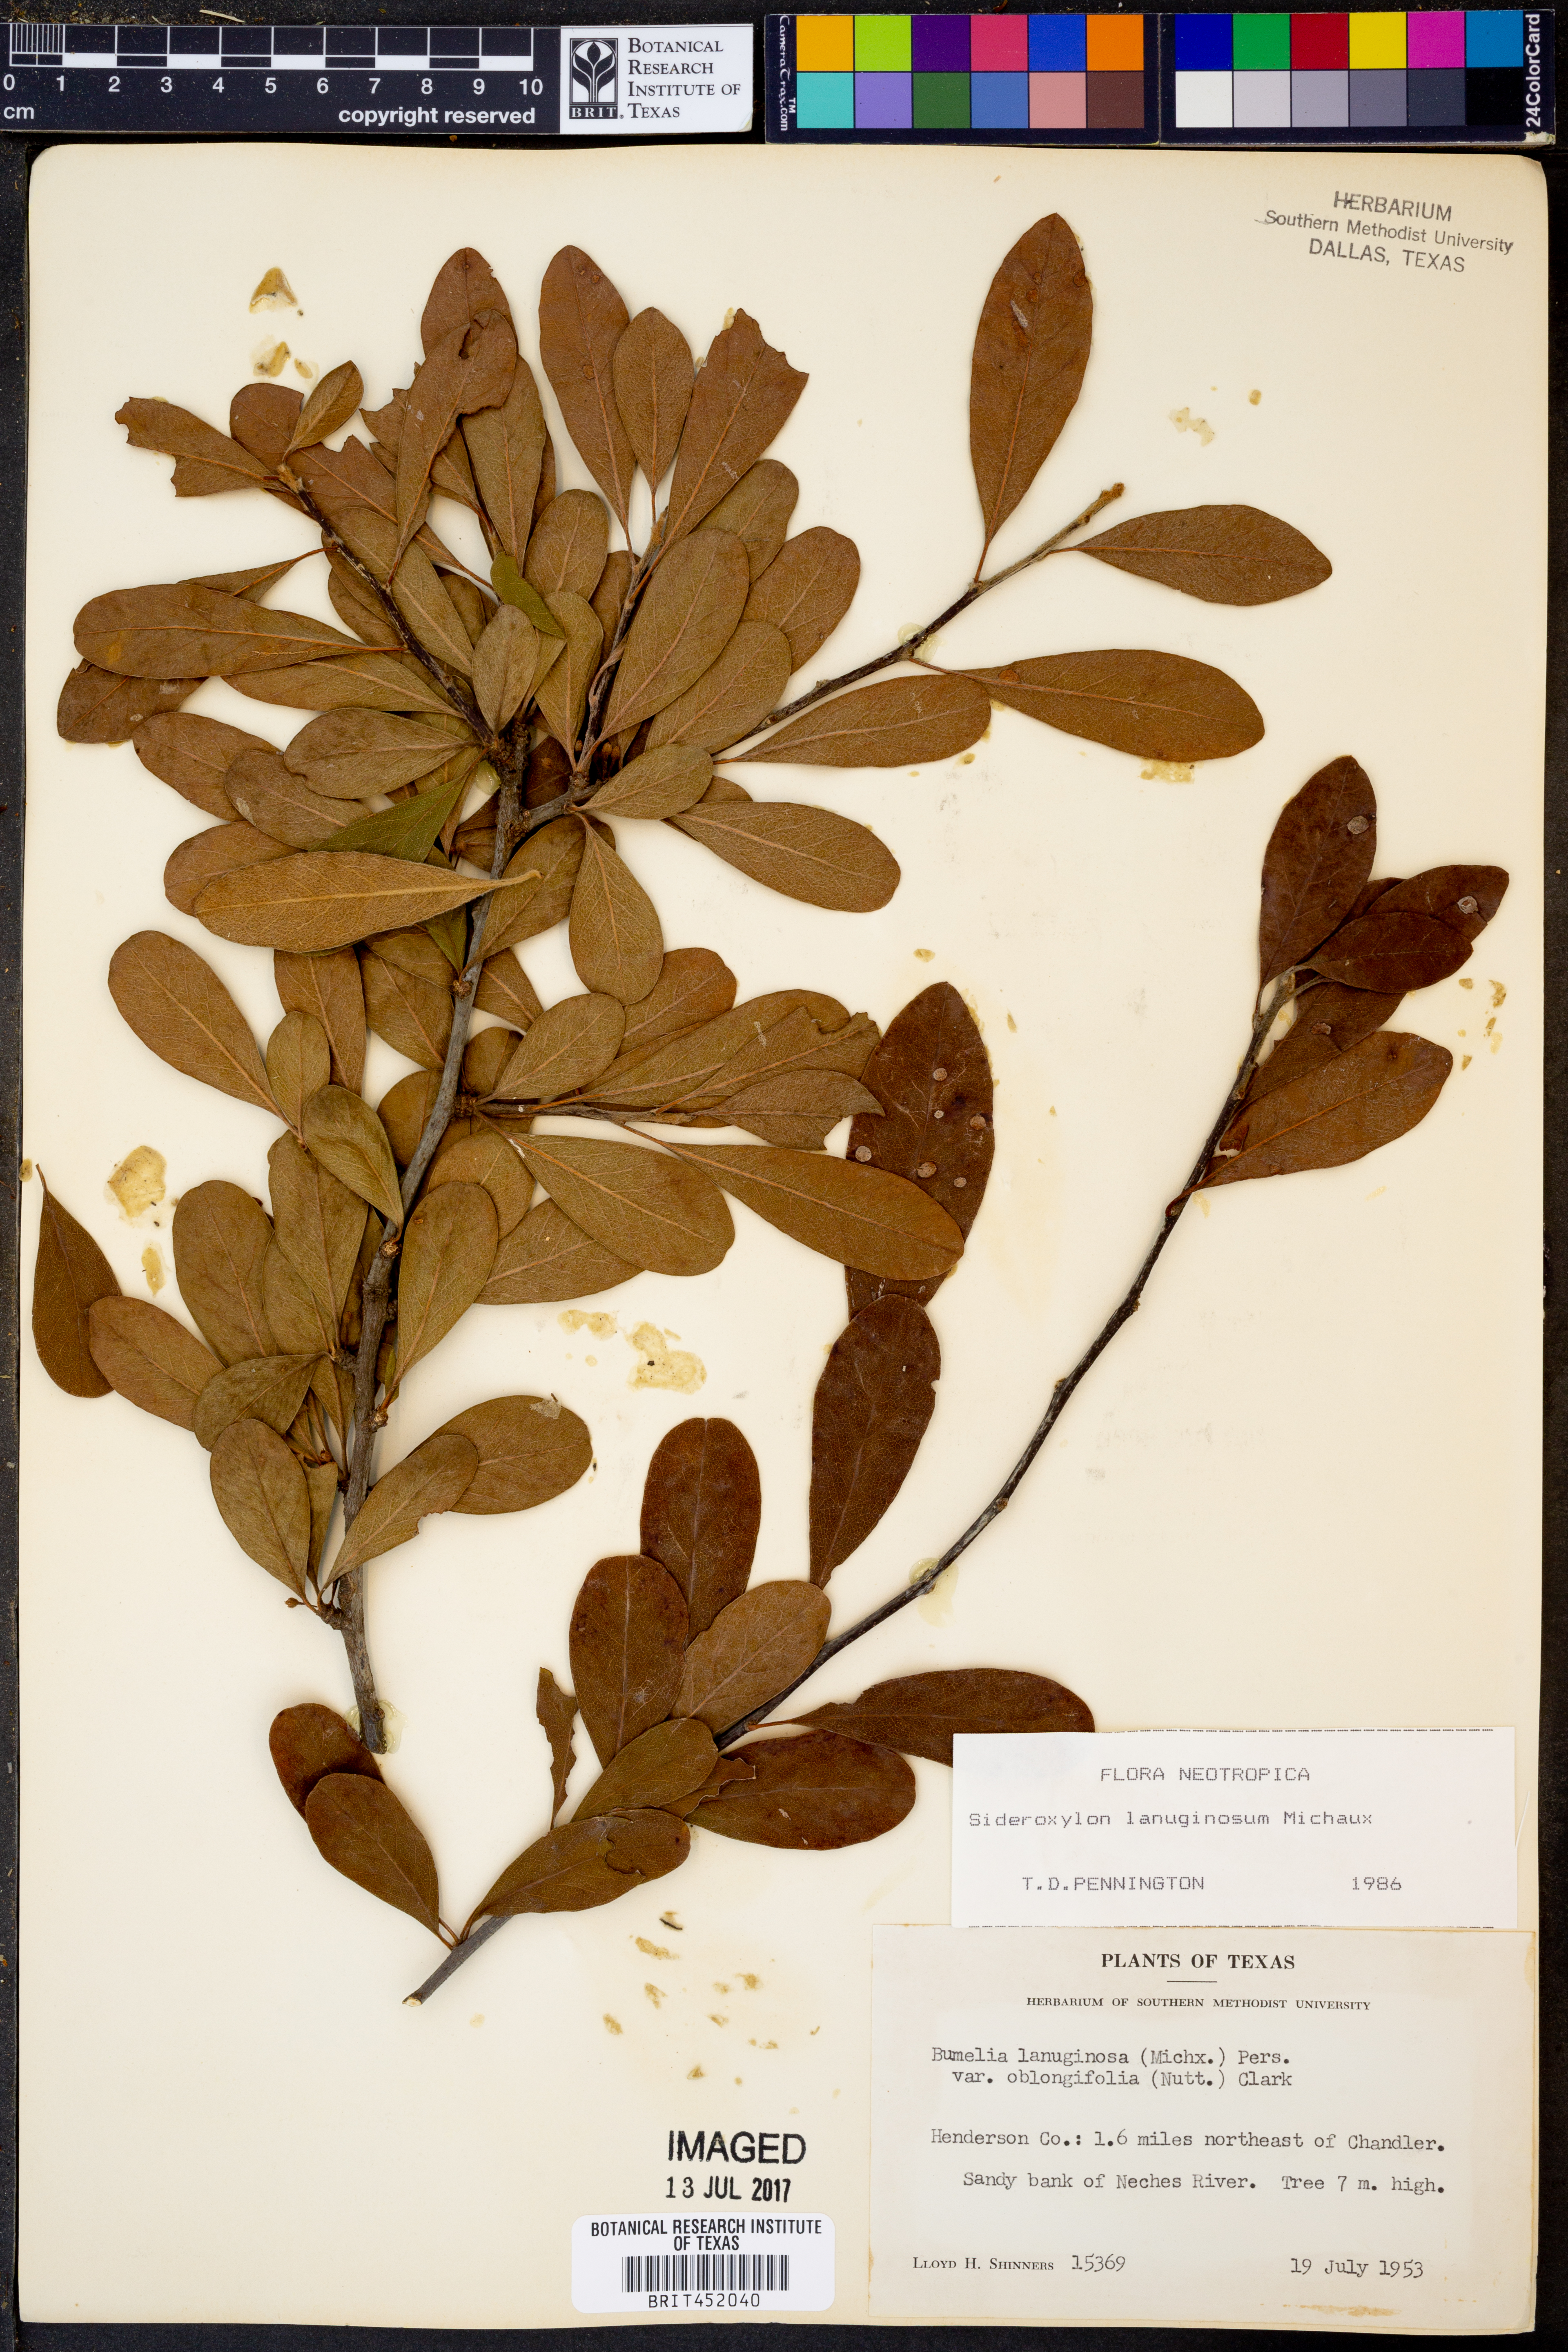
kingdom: Plantae
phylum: Tracheophyta
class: Magnoliopsida
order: Ericales
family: Sapotaceae
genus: Sideroxylon
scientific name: Sideroxylon lanuginosum
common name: Chittamwood
